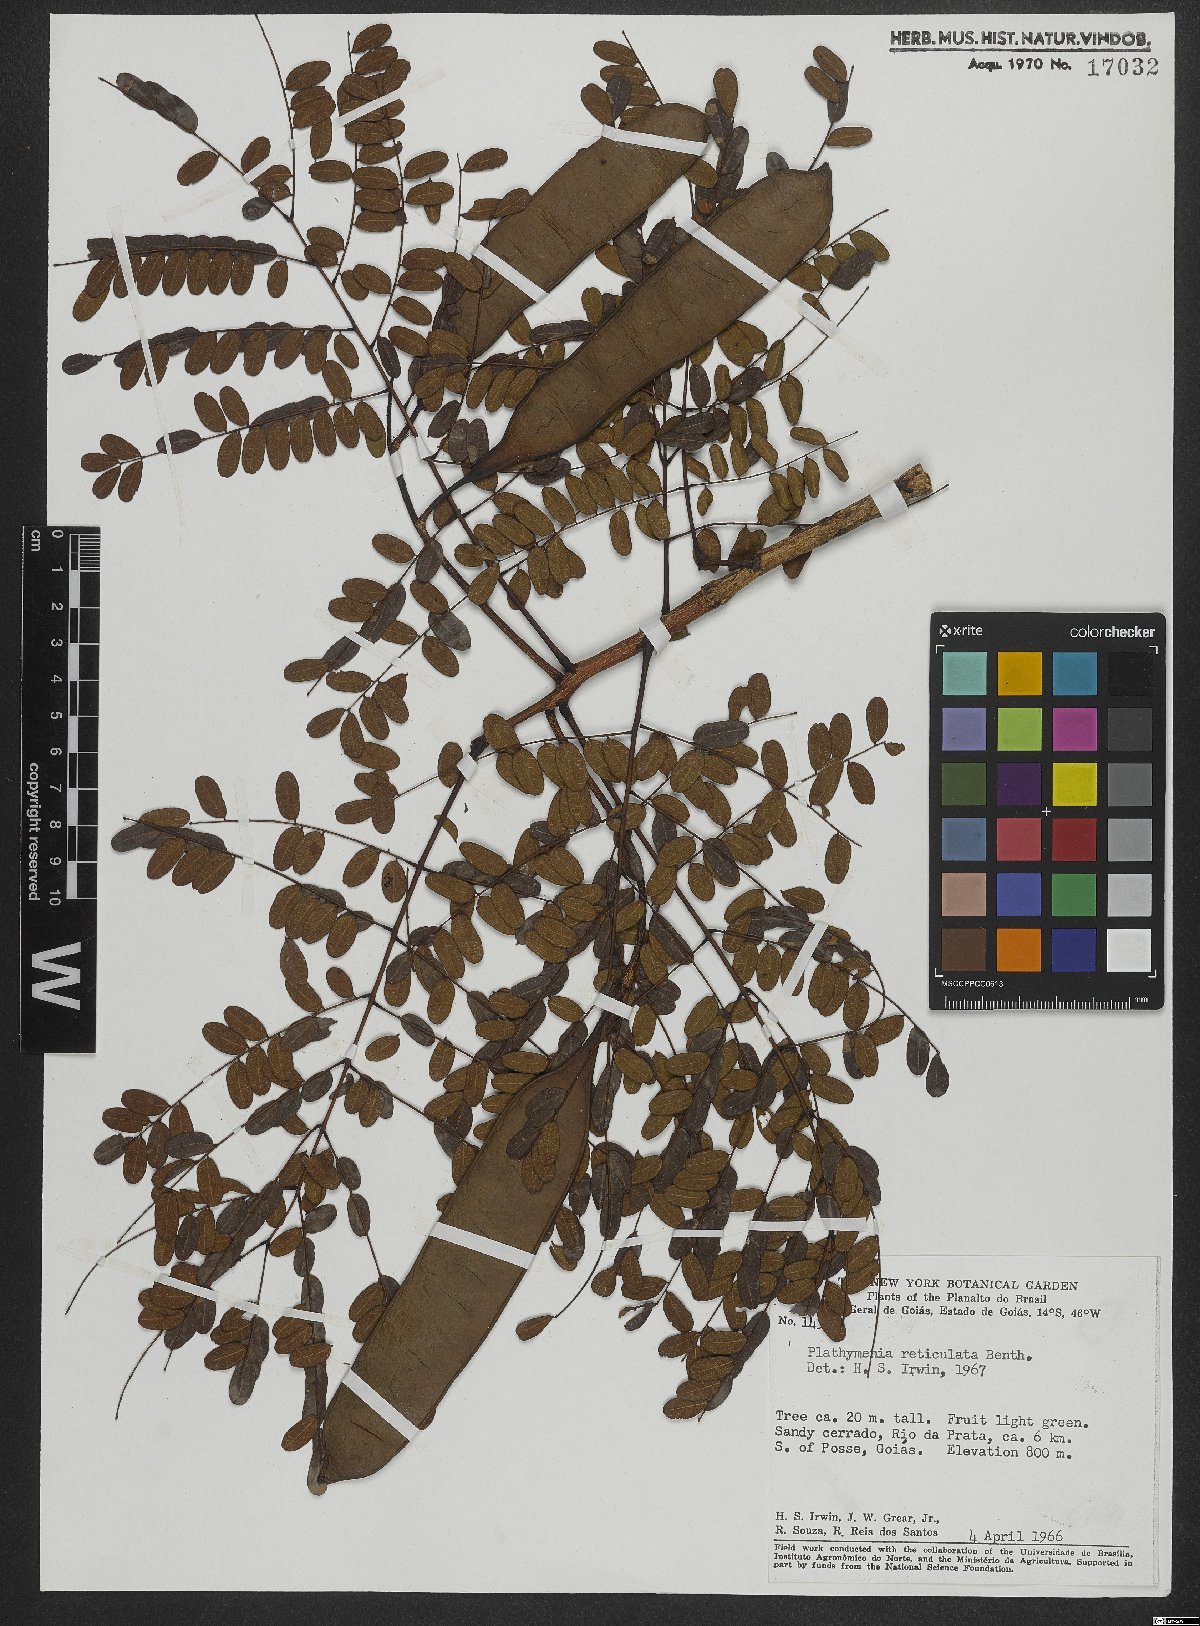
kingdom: Plantae
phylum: Tracheophyta
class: Magnoliopsida
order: Fabales
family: Fabaceae
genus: Plathymenia
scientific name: Plathymenia reticulata
